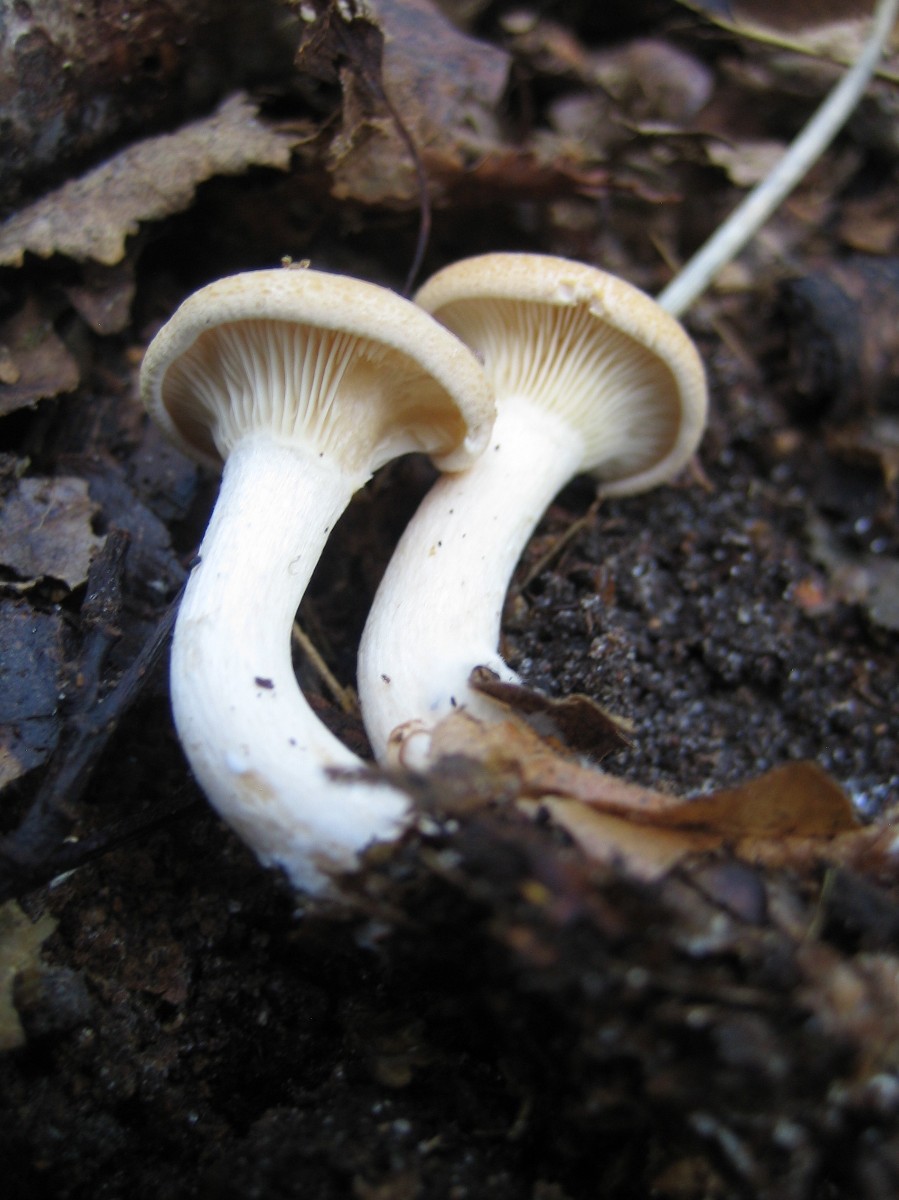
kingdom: Fungi
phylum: Basidiomycota
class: Agaricomycetes
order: Agaricales
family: Tricholomataceae
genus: Paralepista
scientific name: Paralepista gilva
